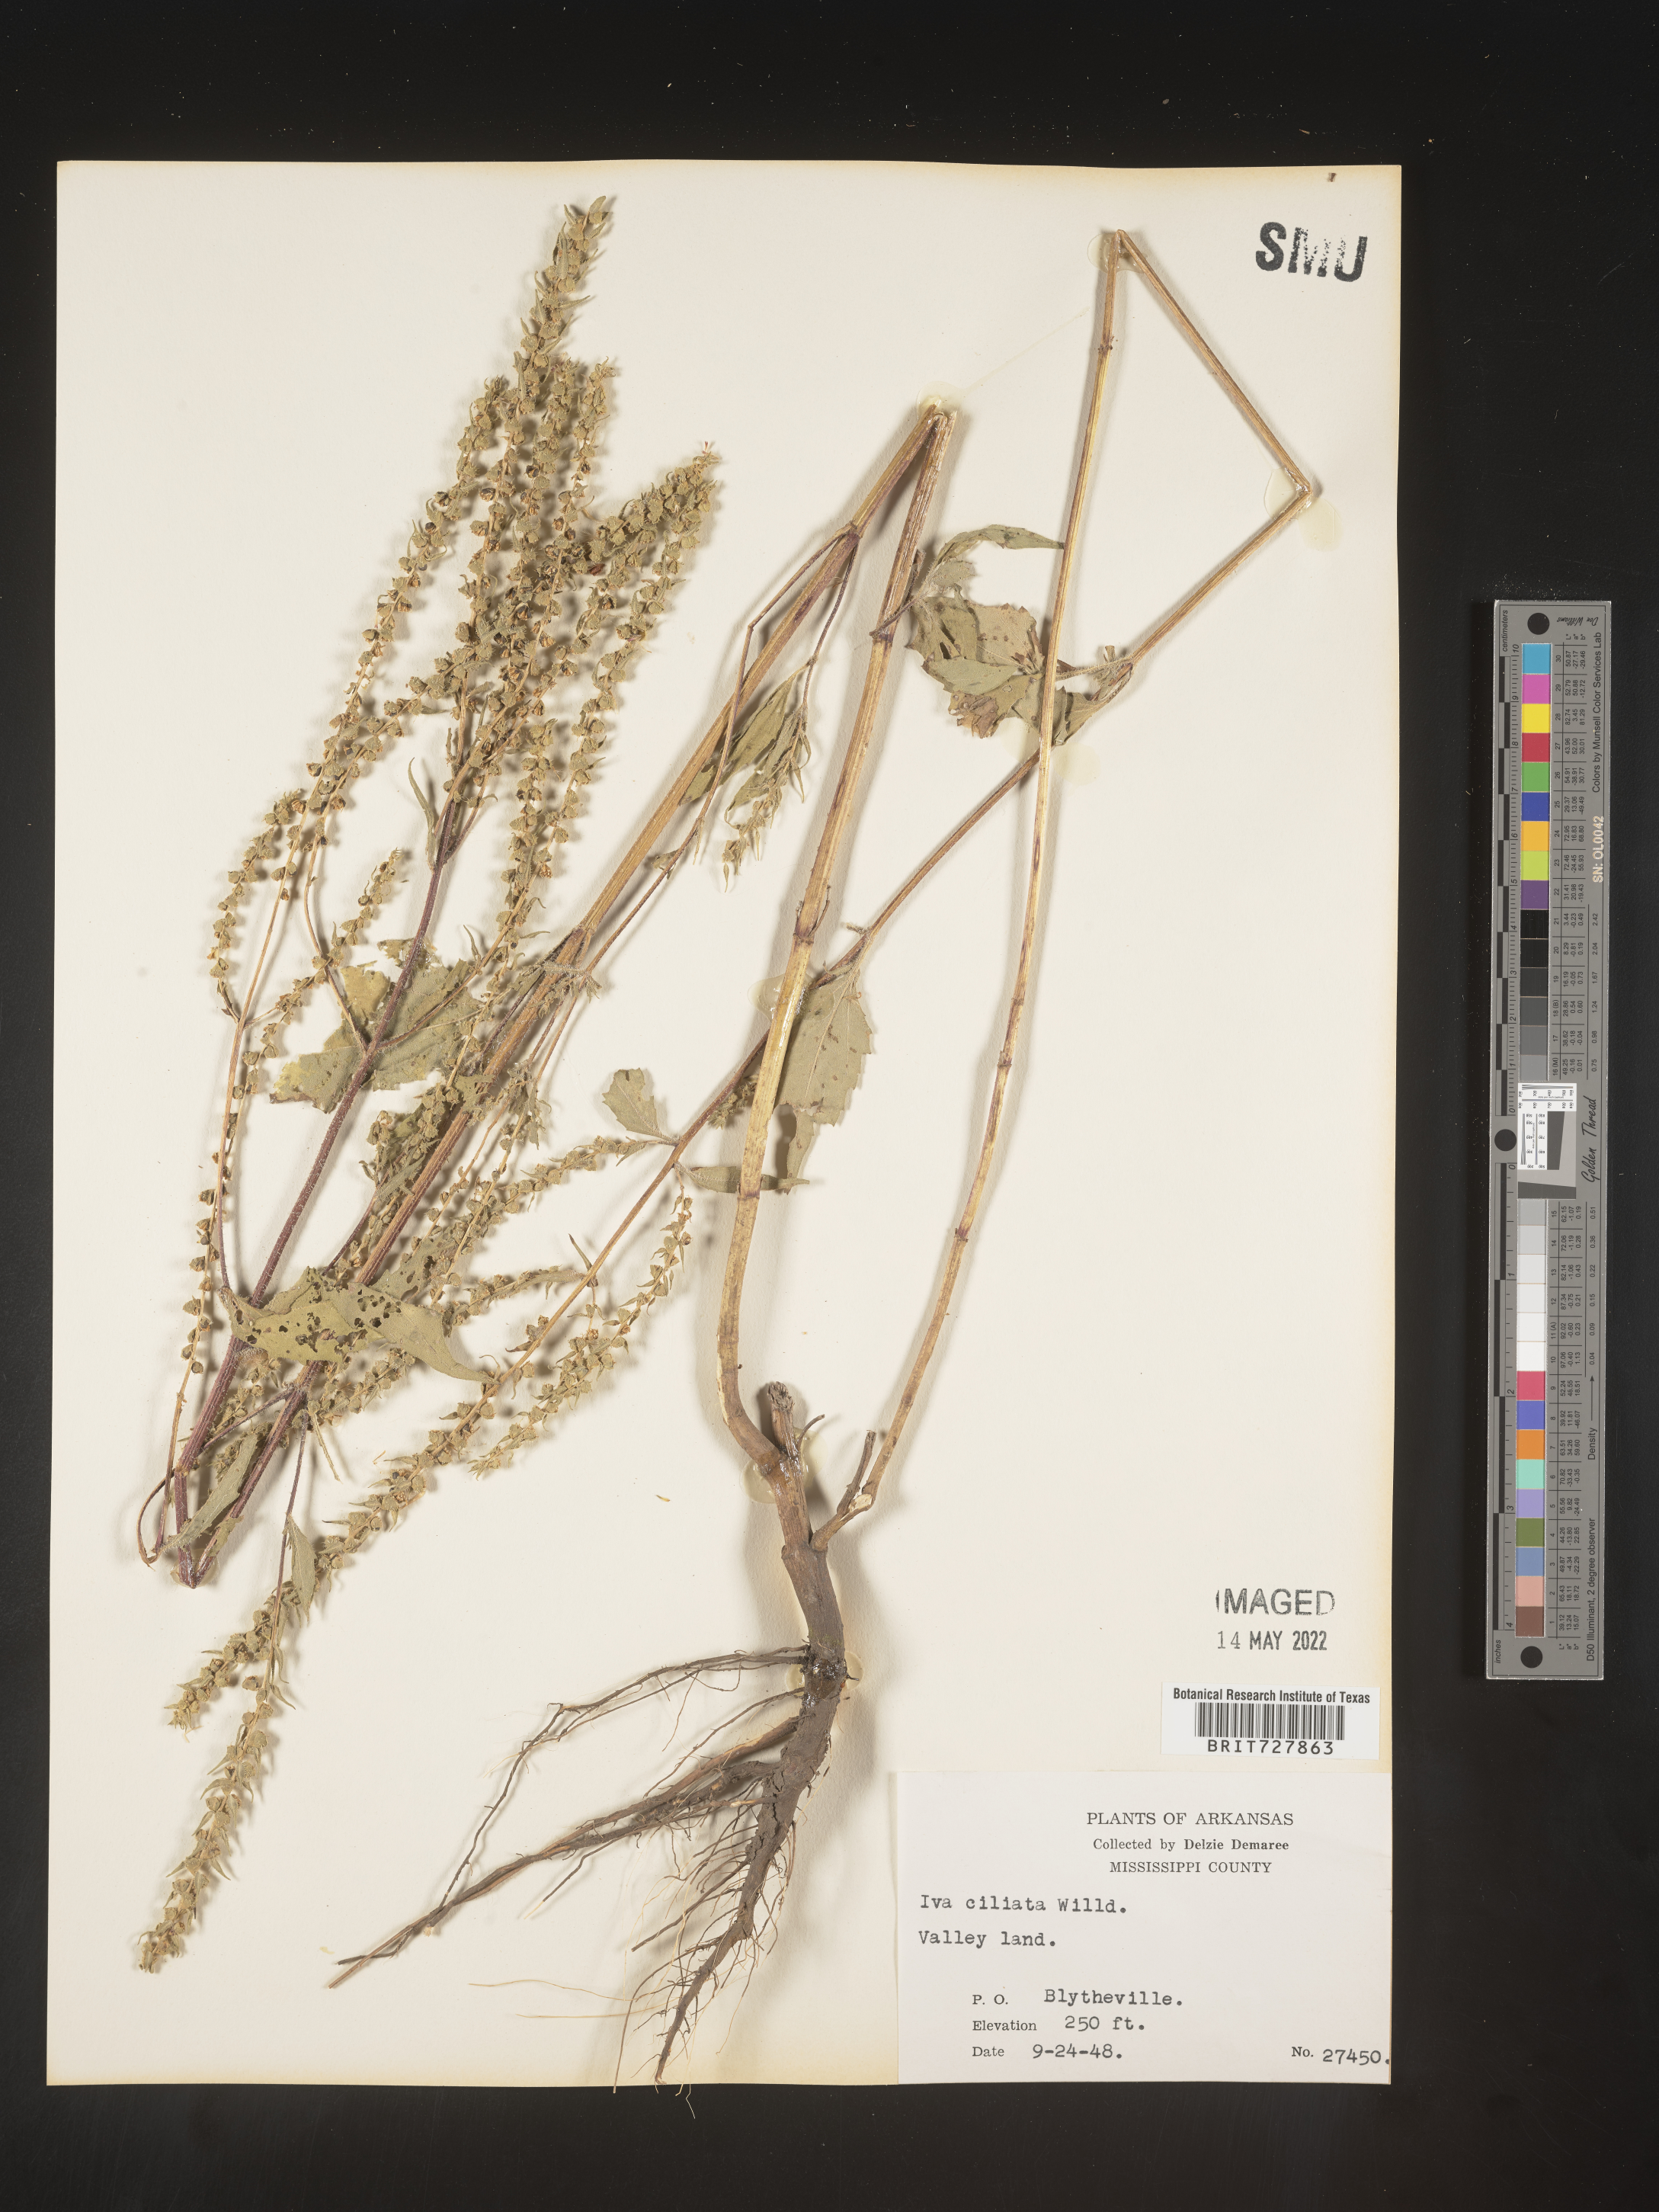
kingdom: Plantae
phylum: Tracheophyta
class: Magnoliopsida
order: Asterales
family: Asteraceae
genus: Iva
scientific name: Iva annua
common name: Marsh-elder
